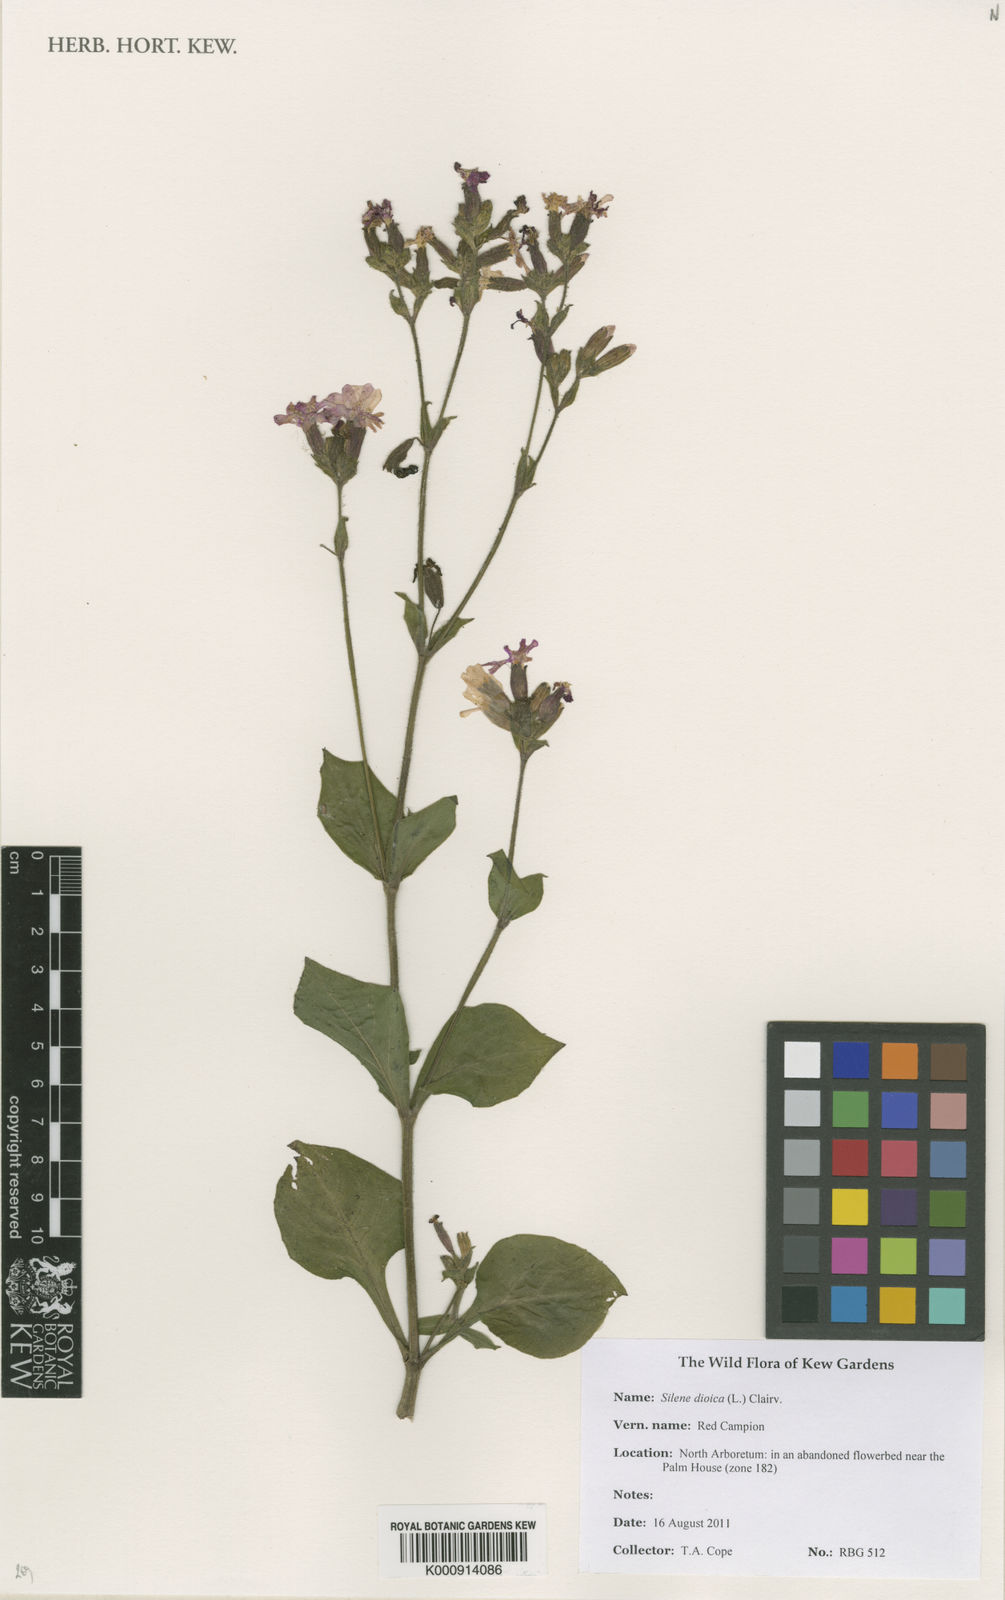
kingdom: Plantae
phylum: Tracheophyta
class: Magnoliopsida
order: Caryophyllales
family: Caryophyllaceae
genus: Silene
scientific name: Silene dioica
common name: Red campion
